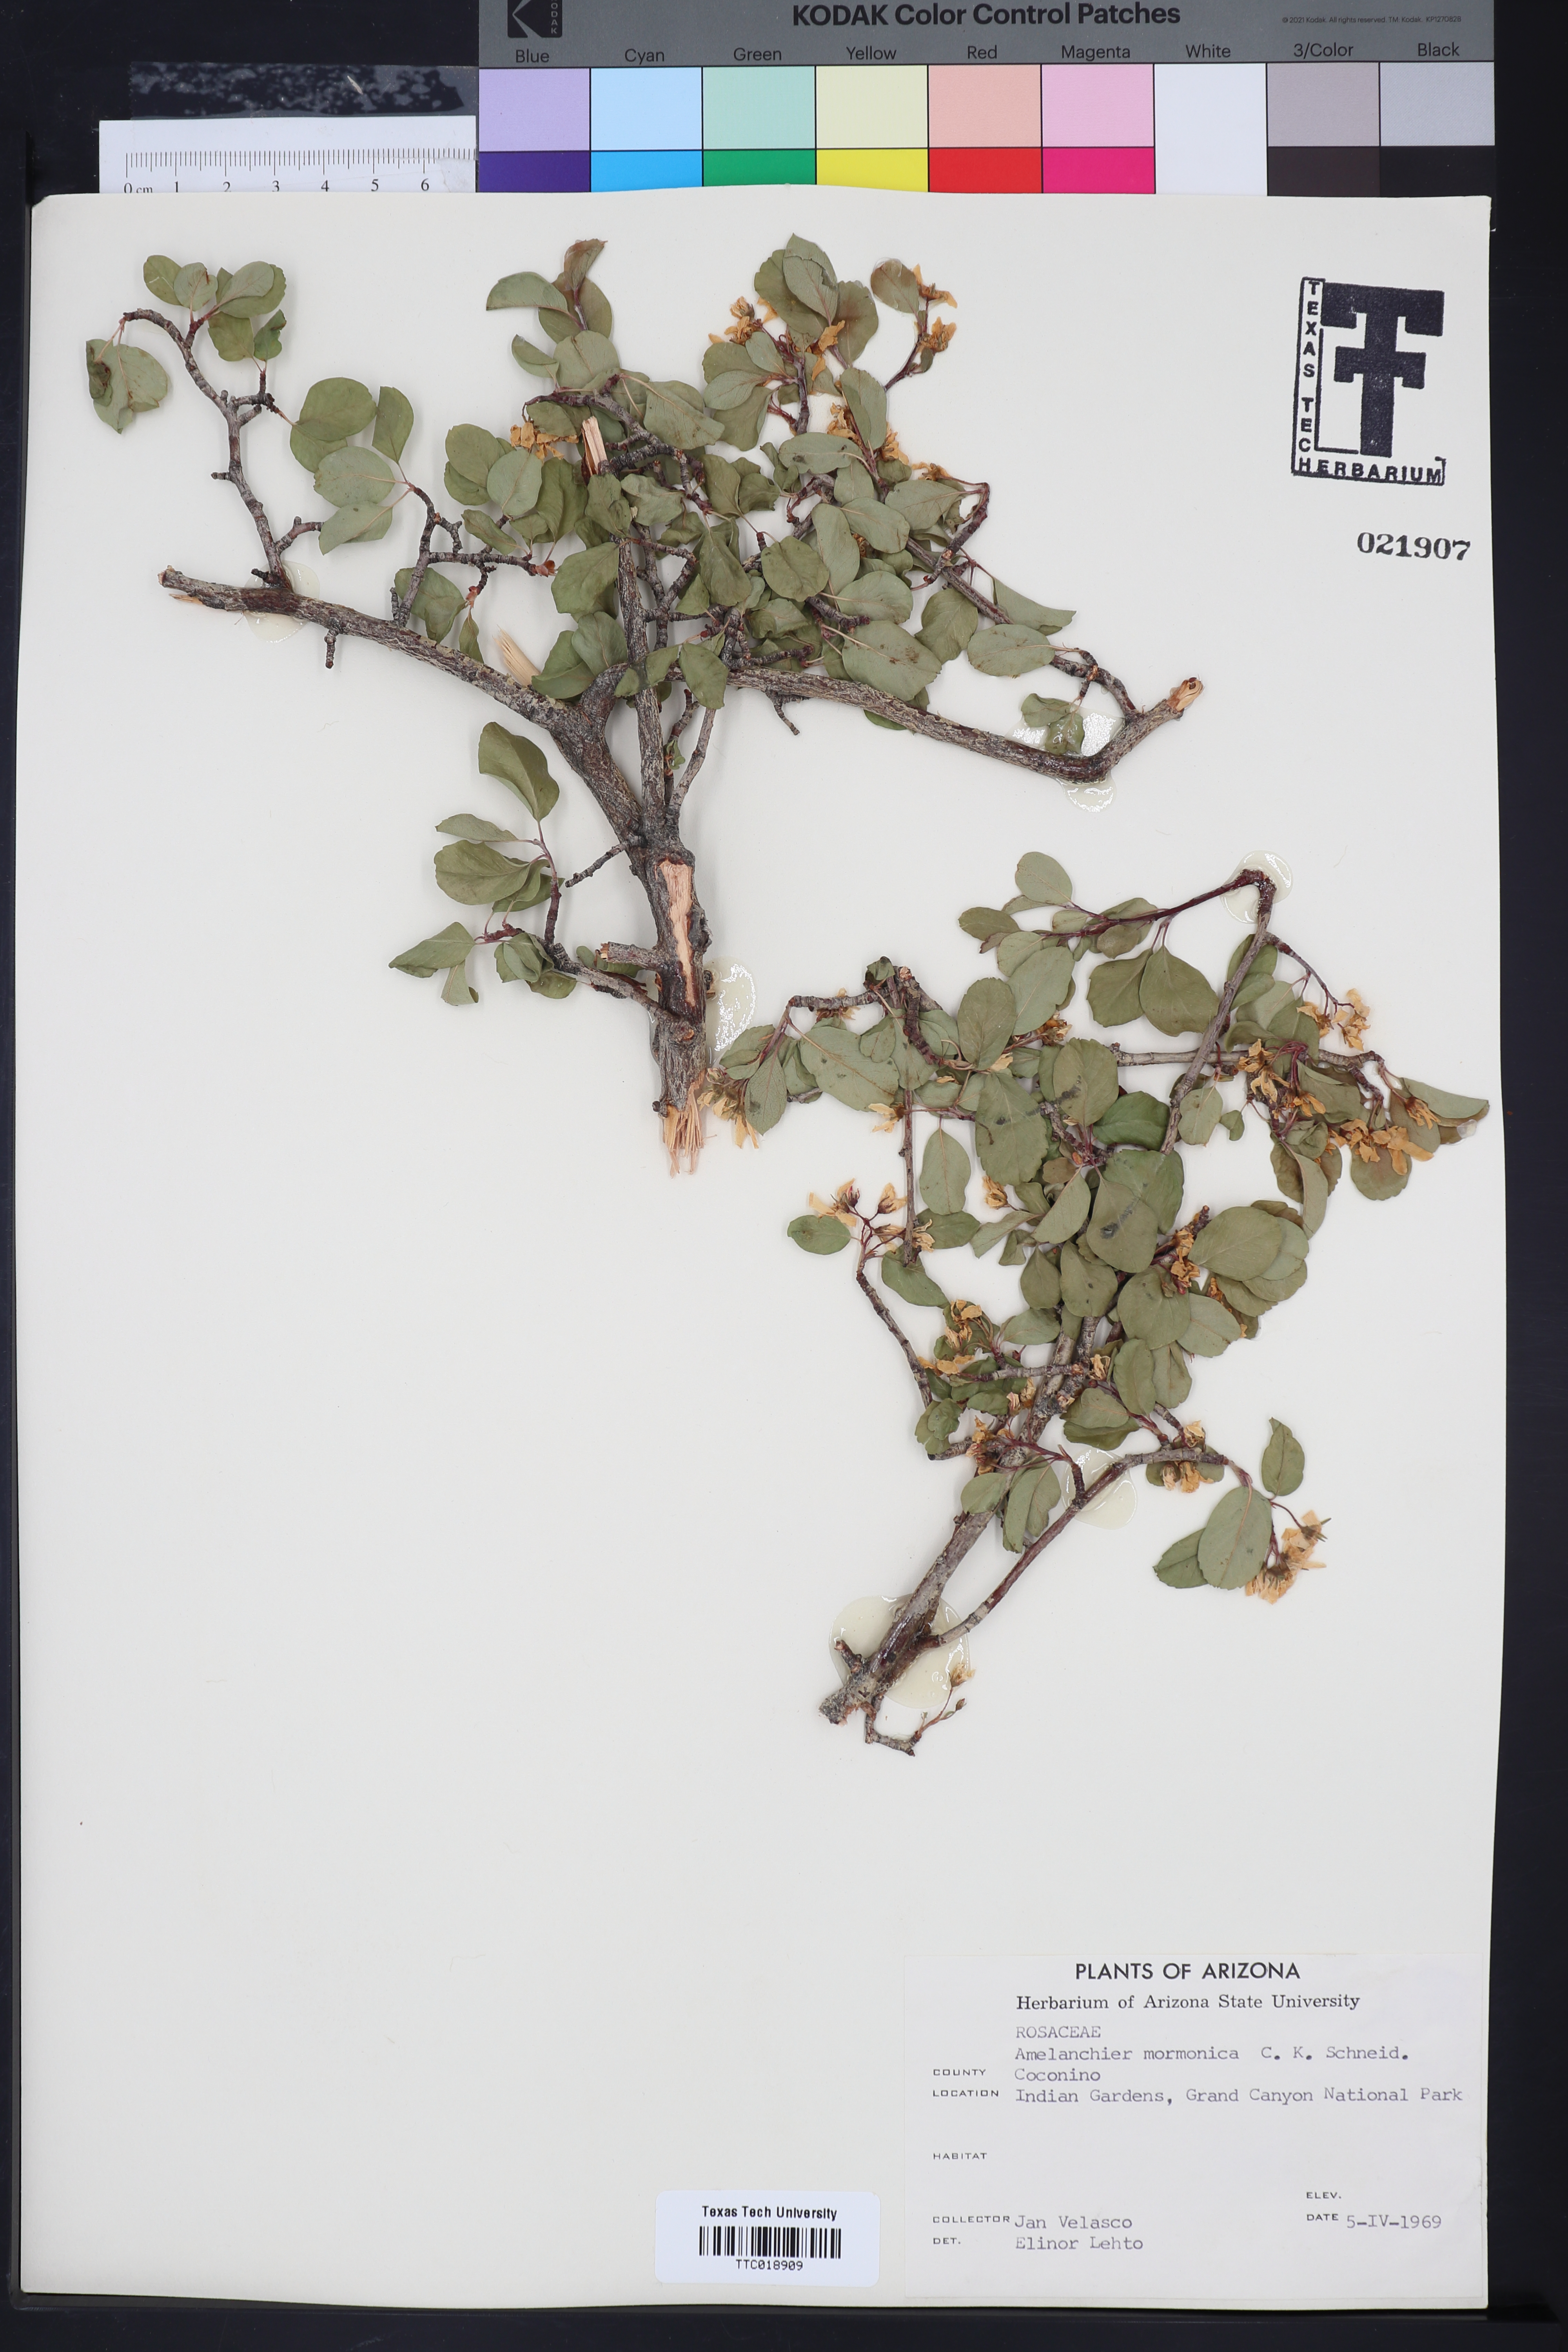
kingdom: Plantae
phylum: Tracheophyta
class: Magnoliopsida
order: Rosales
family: Rosaceae
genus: Amelanchier
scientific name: Amelanchier utahensis
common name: Utah serviceberry
